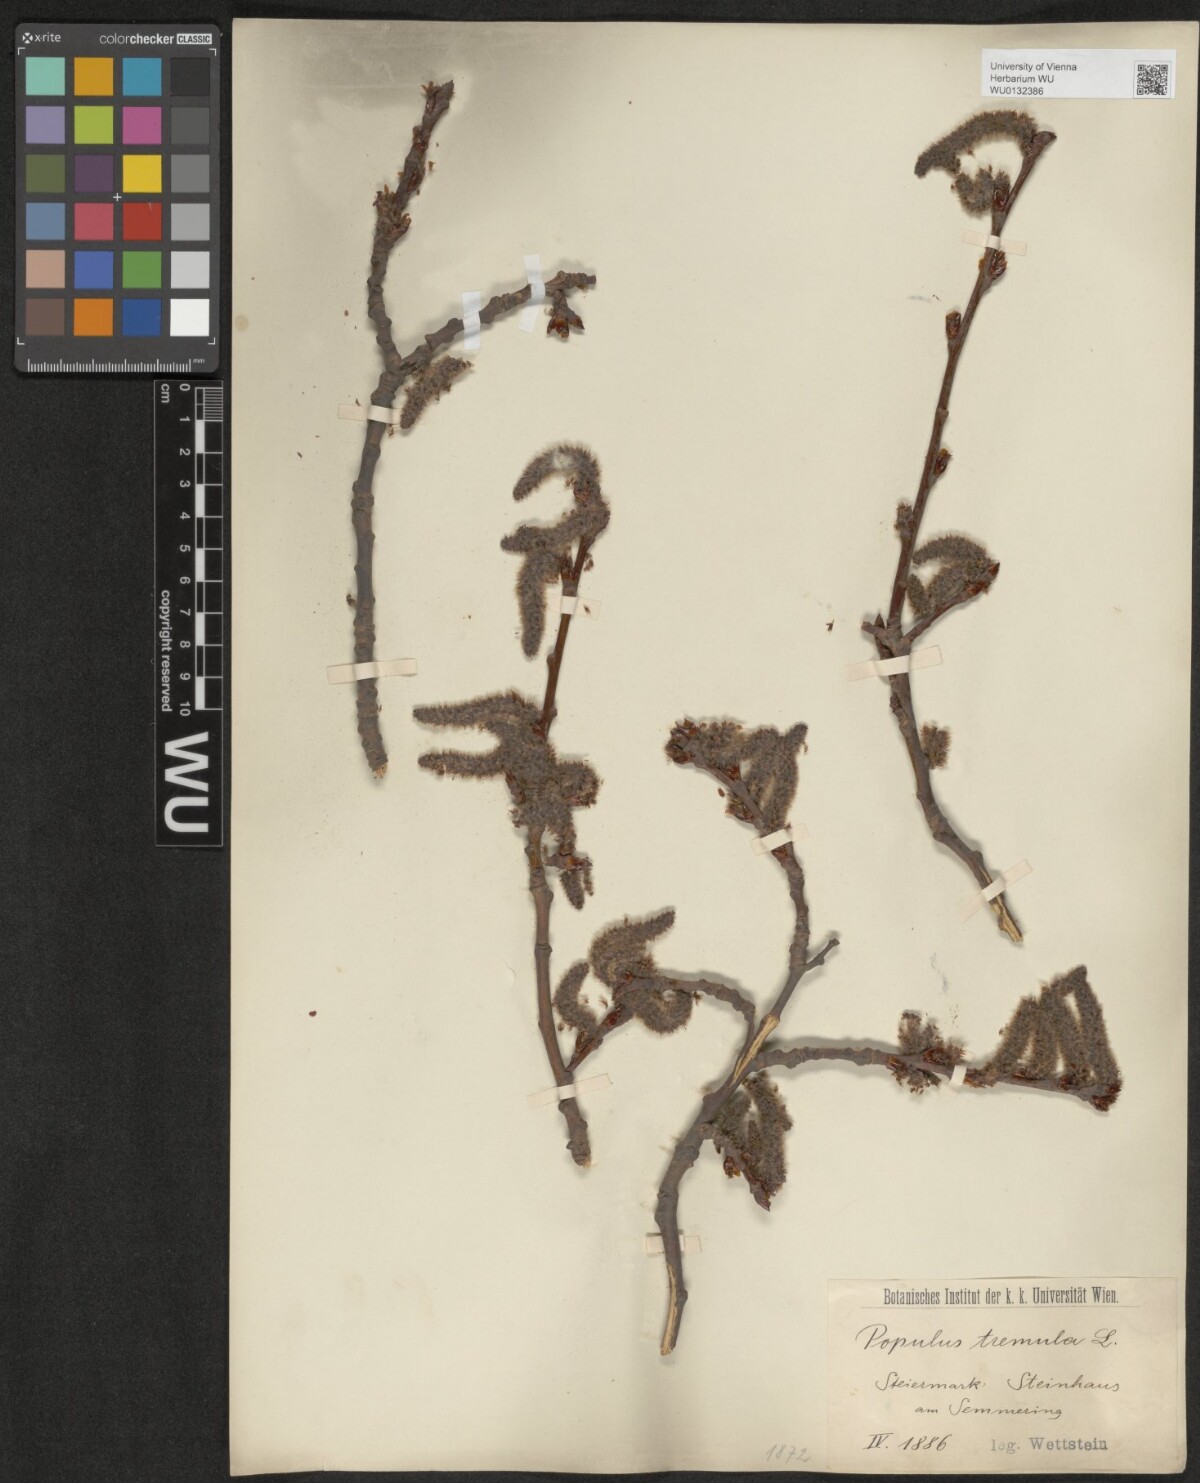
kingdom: Plantae
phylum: Tracheophyta
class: Magnoliopsida
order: Malpighiales
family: Salicaceae
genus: Populus
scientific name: Populus tremula
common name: European aspen
